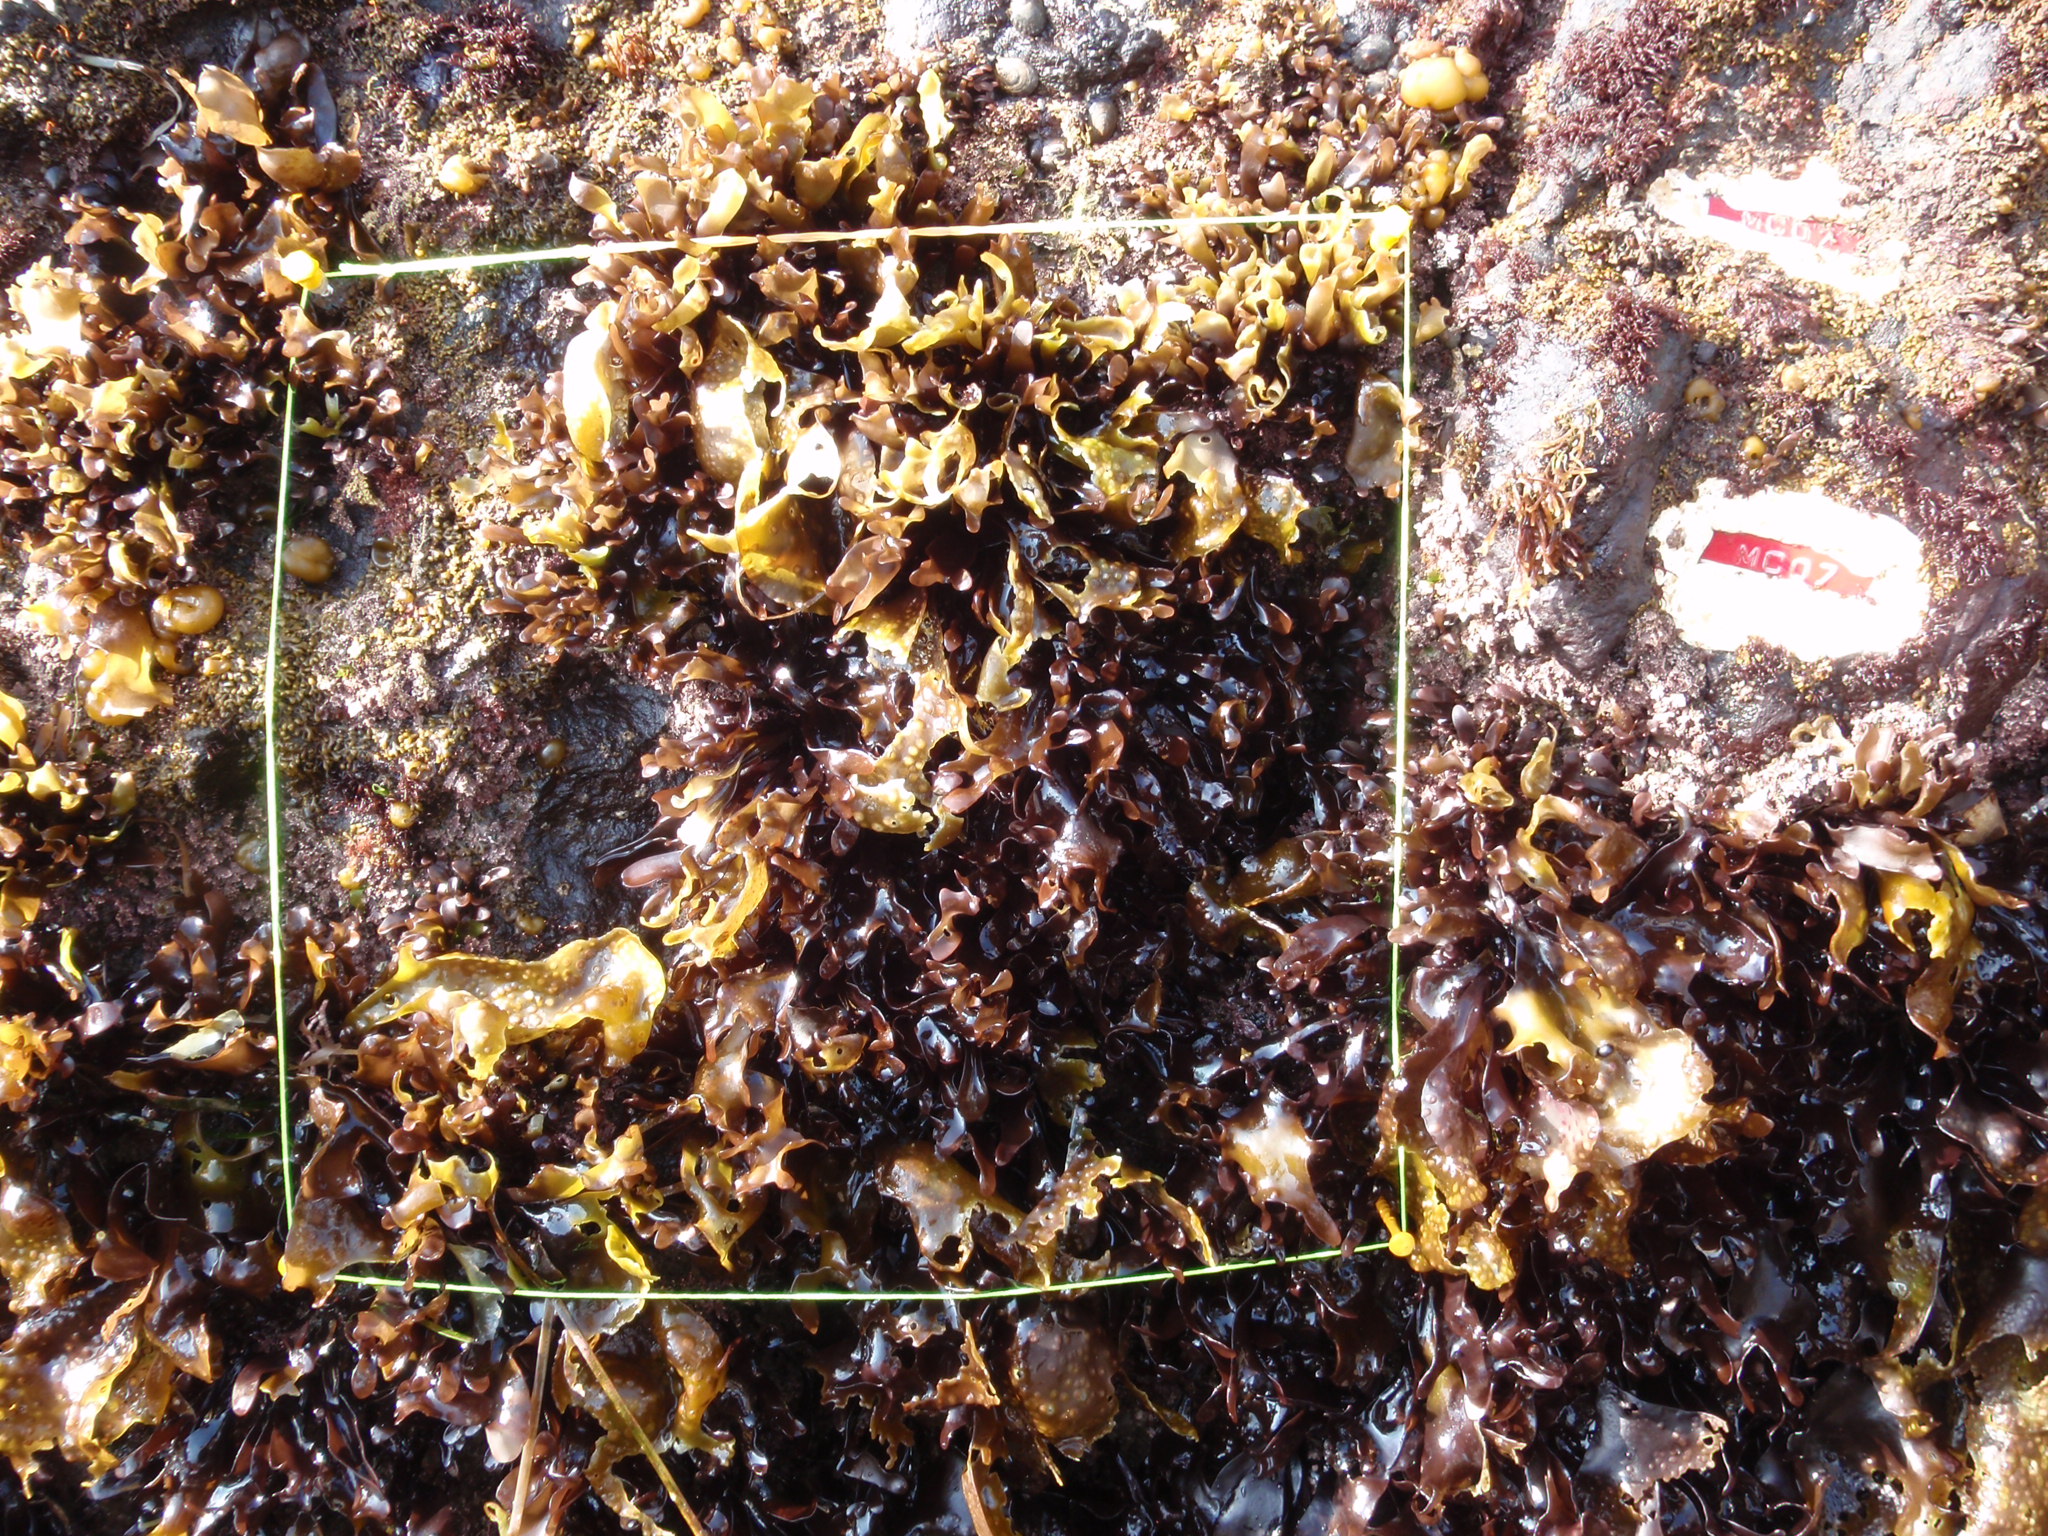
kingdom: Chromista
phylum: Ochrophyta
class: Phaeophyceae
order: Scytosiphonales
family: Scytosiphonaceae
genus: Analipus
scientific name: Analipus japonicus
